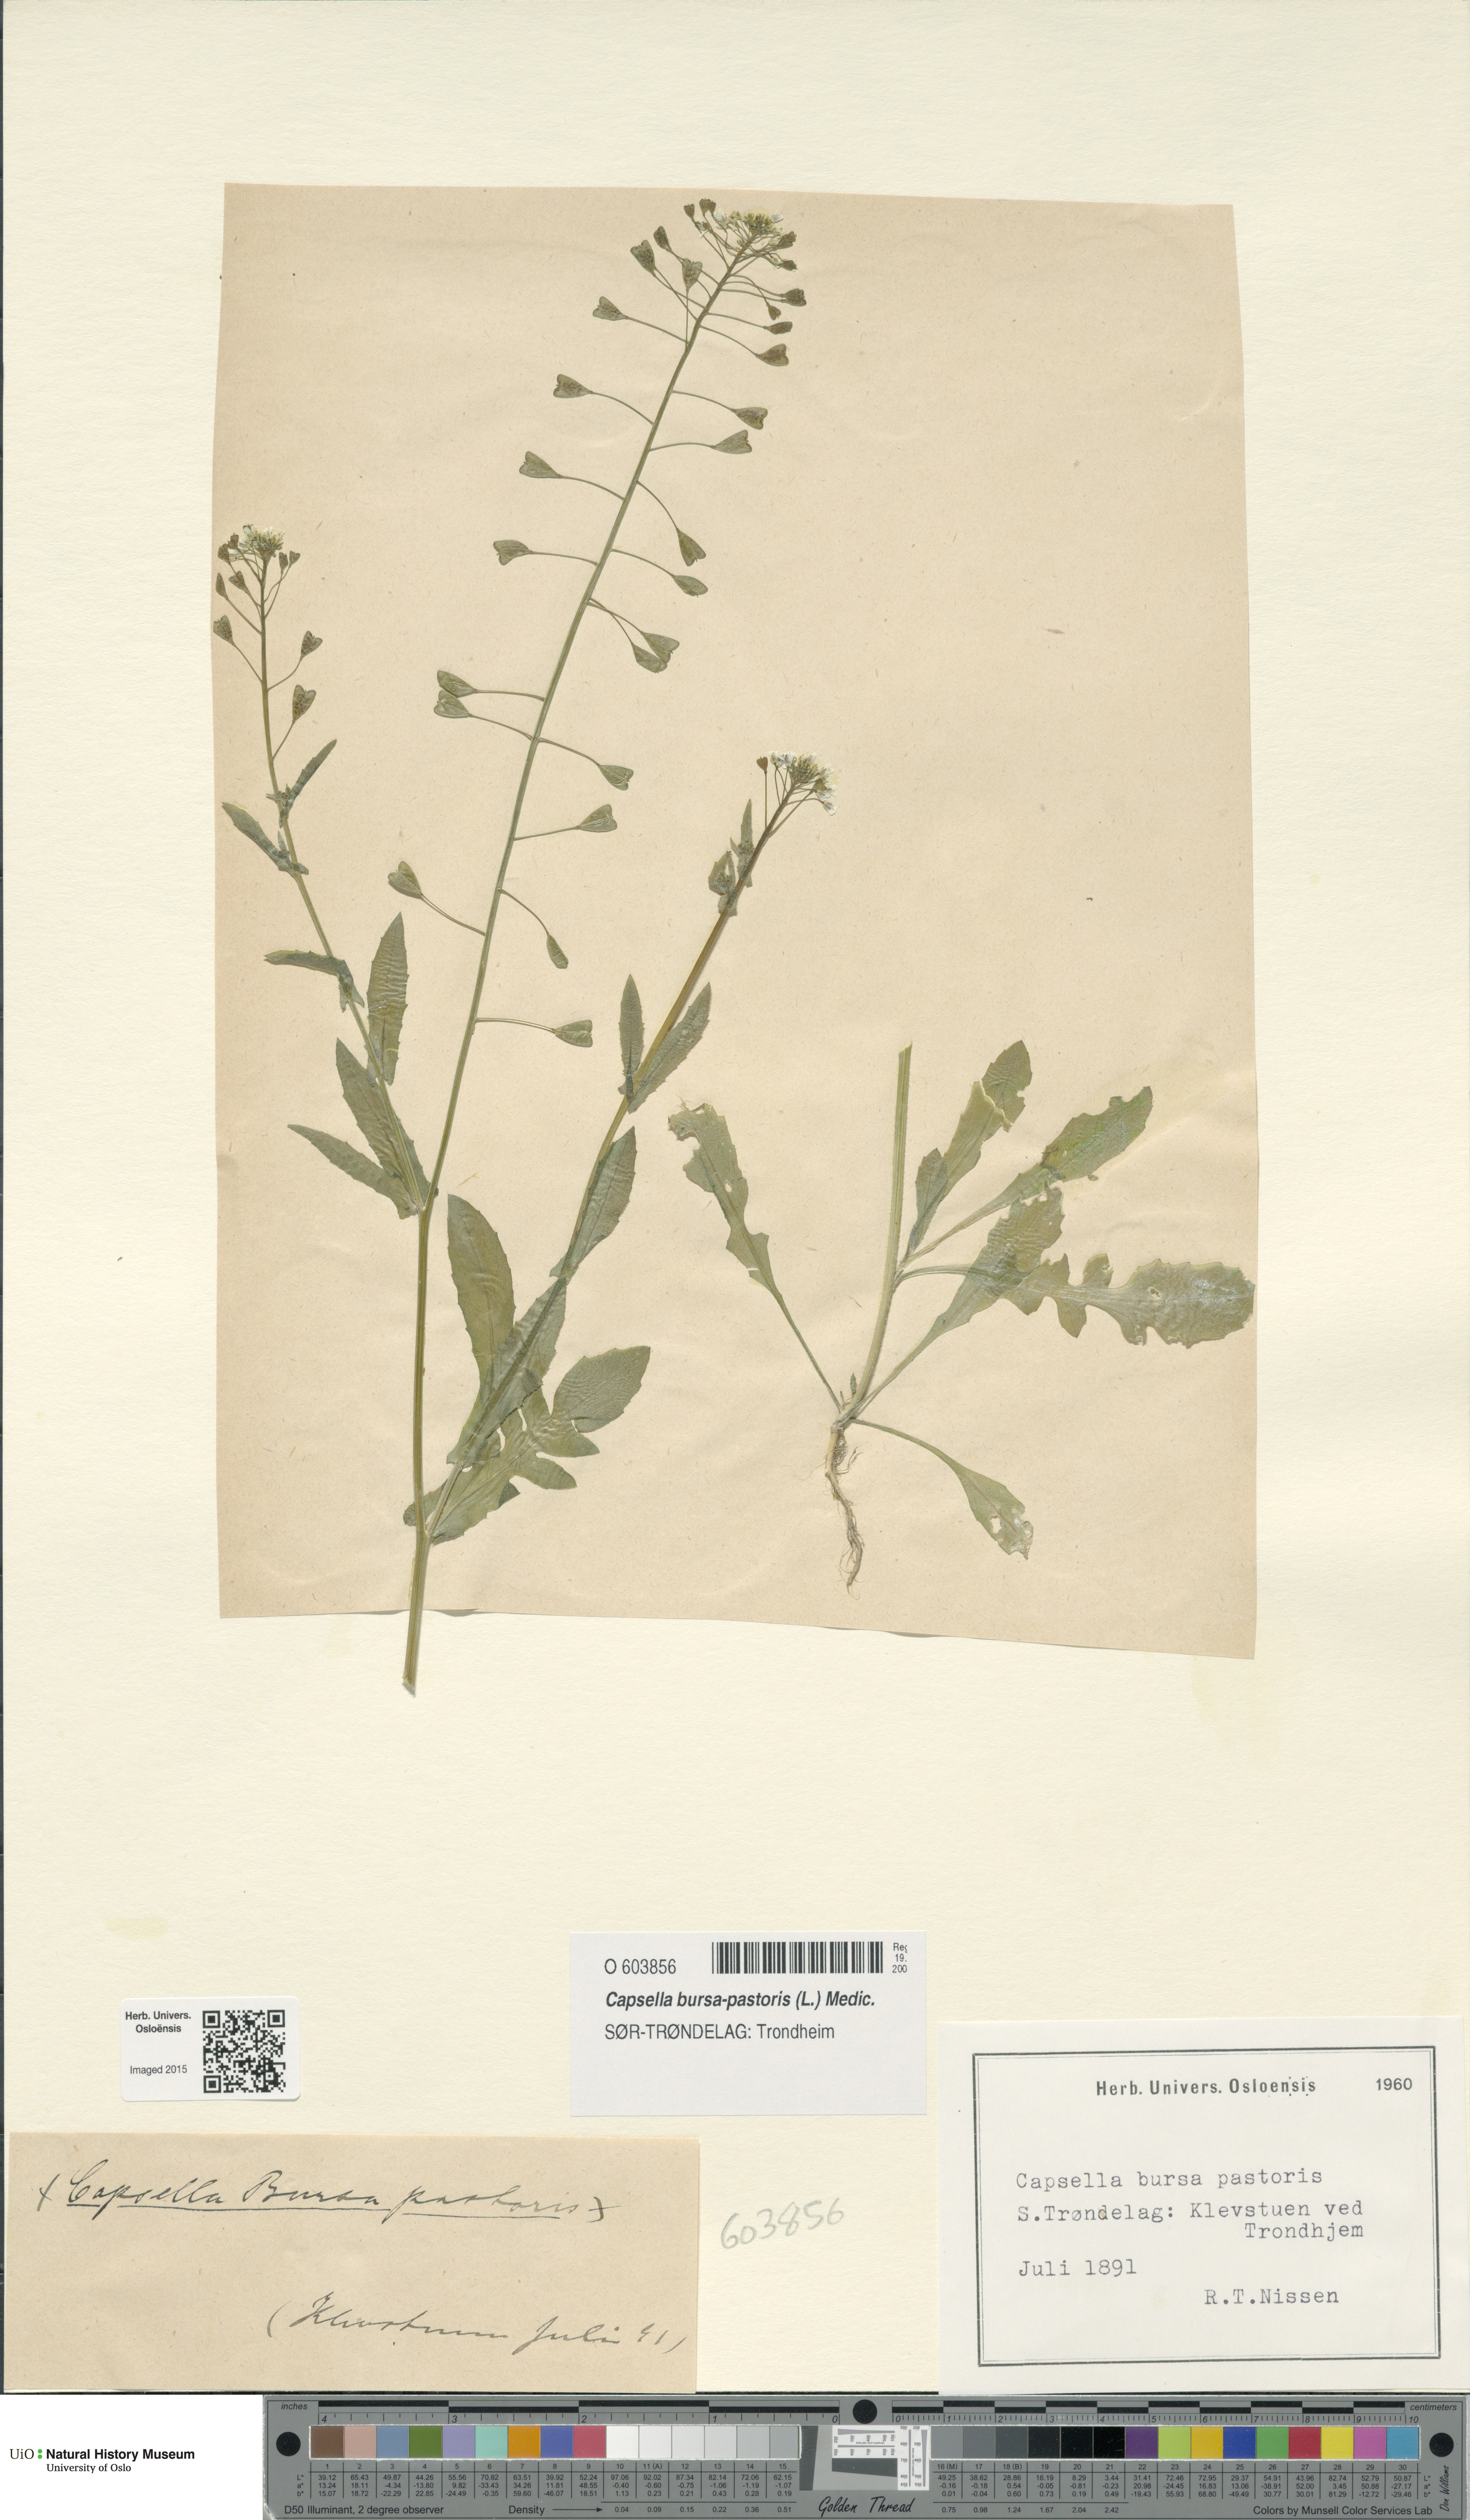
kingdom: Plantae
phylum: Tracheophyta
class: Magnoliopsida
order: Brassicales
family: Brassicaceae
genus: Capsella
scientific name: Capsella bursa-pastoris
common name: Shepherd's purse
